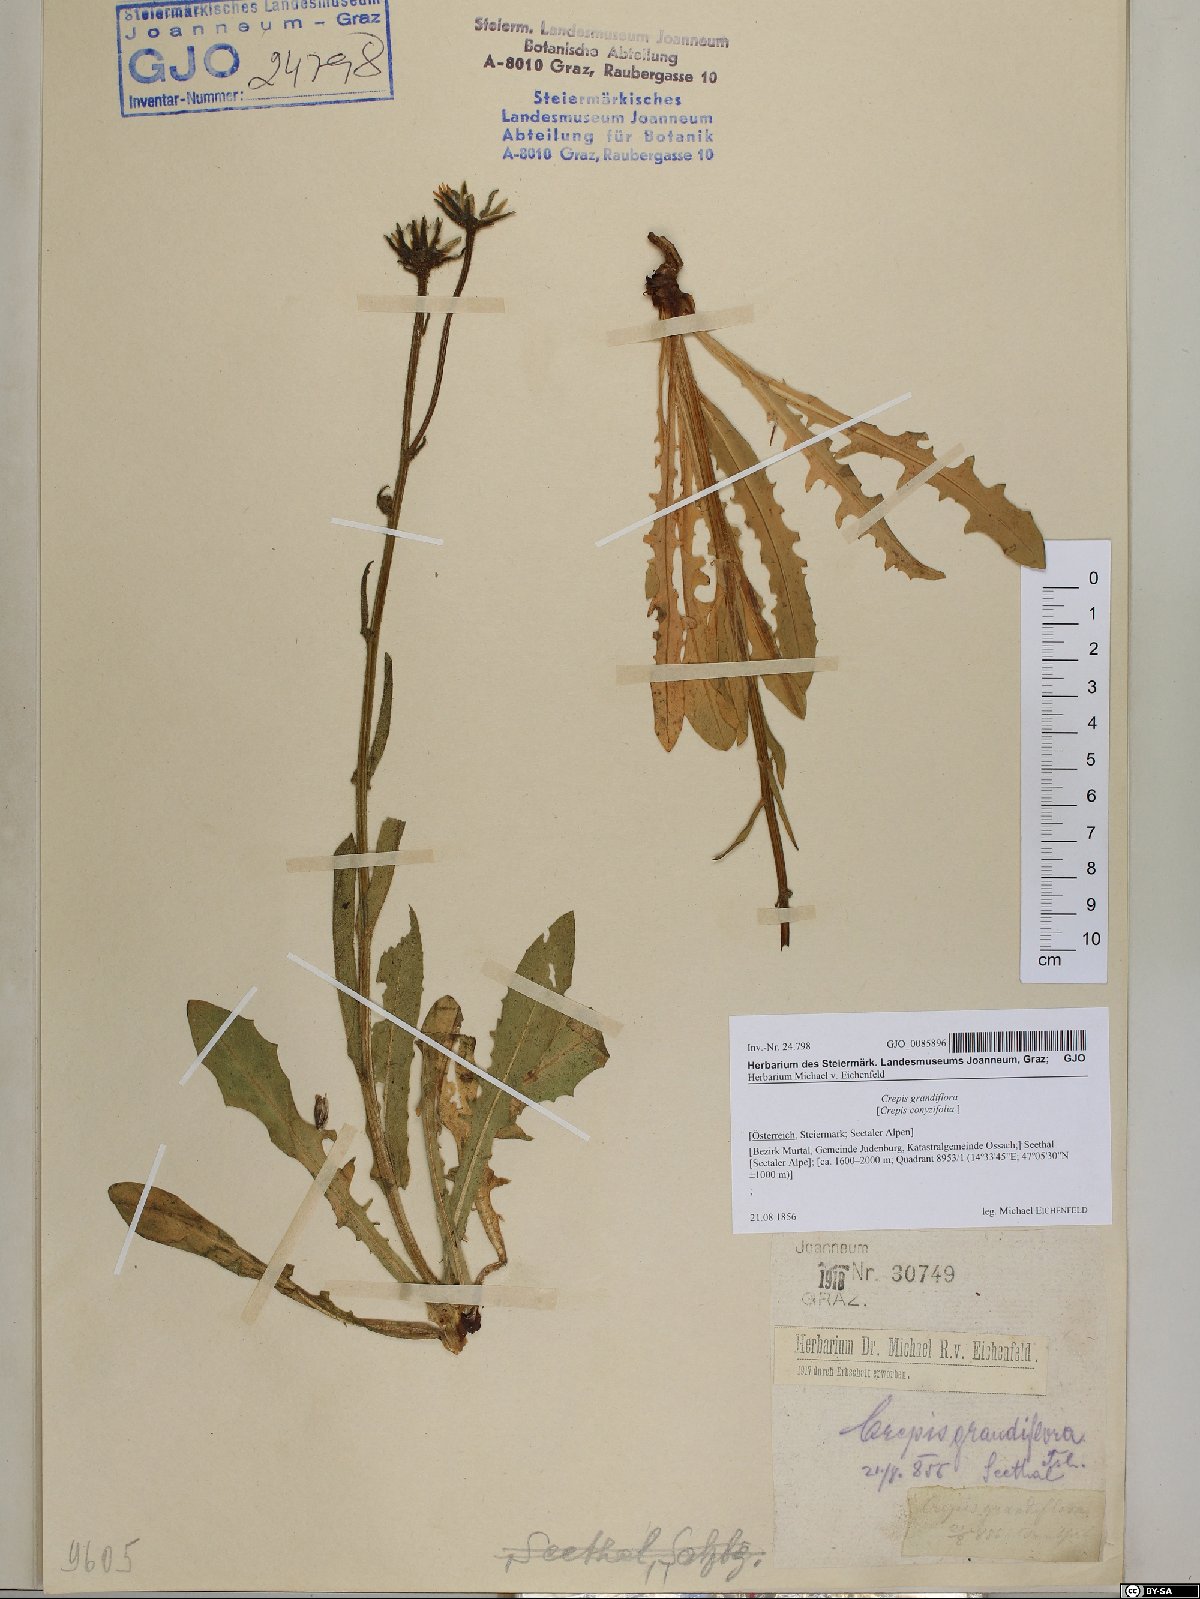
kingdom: Plantae
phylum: Tracheophyta
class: Magnoliopsida
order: Asterales
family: Asteraceae
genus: Crepis
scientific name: Crepis pyrenaica
